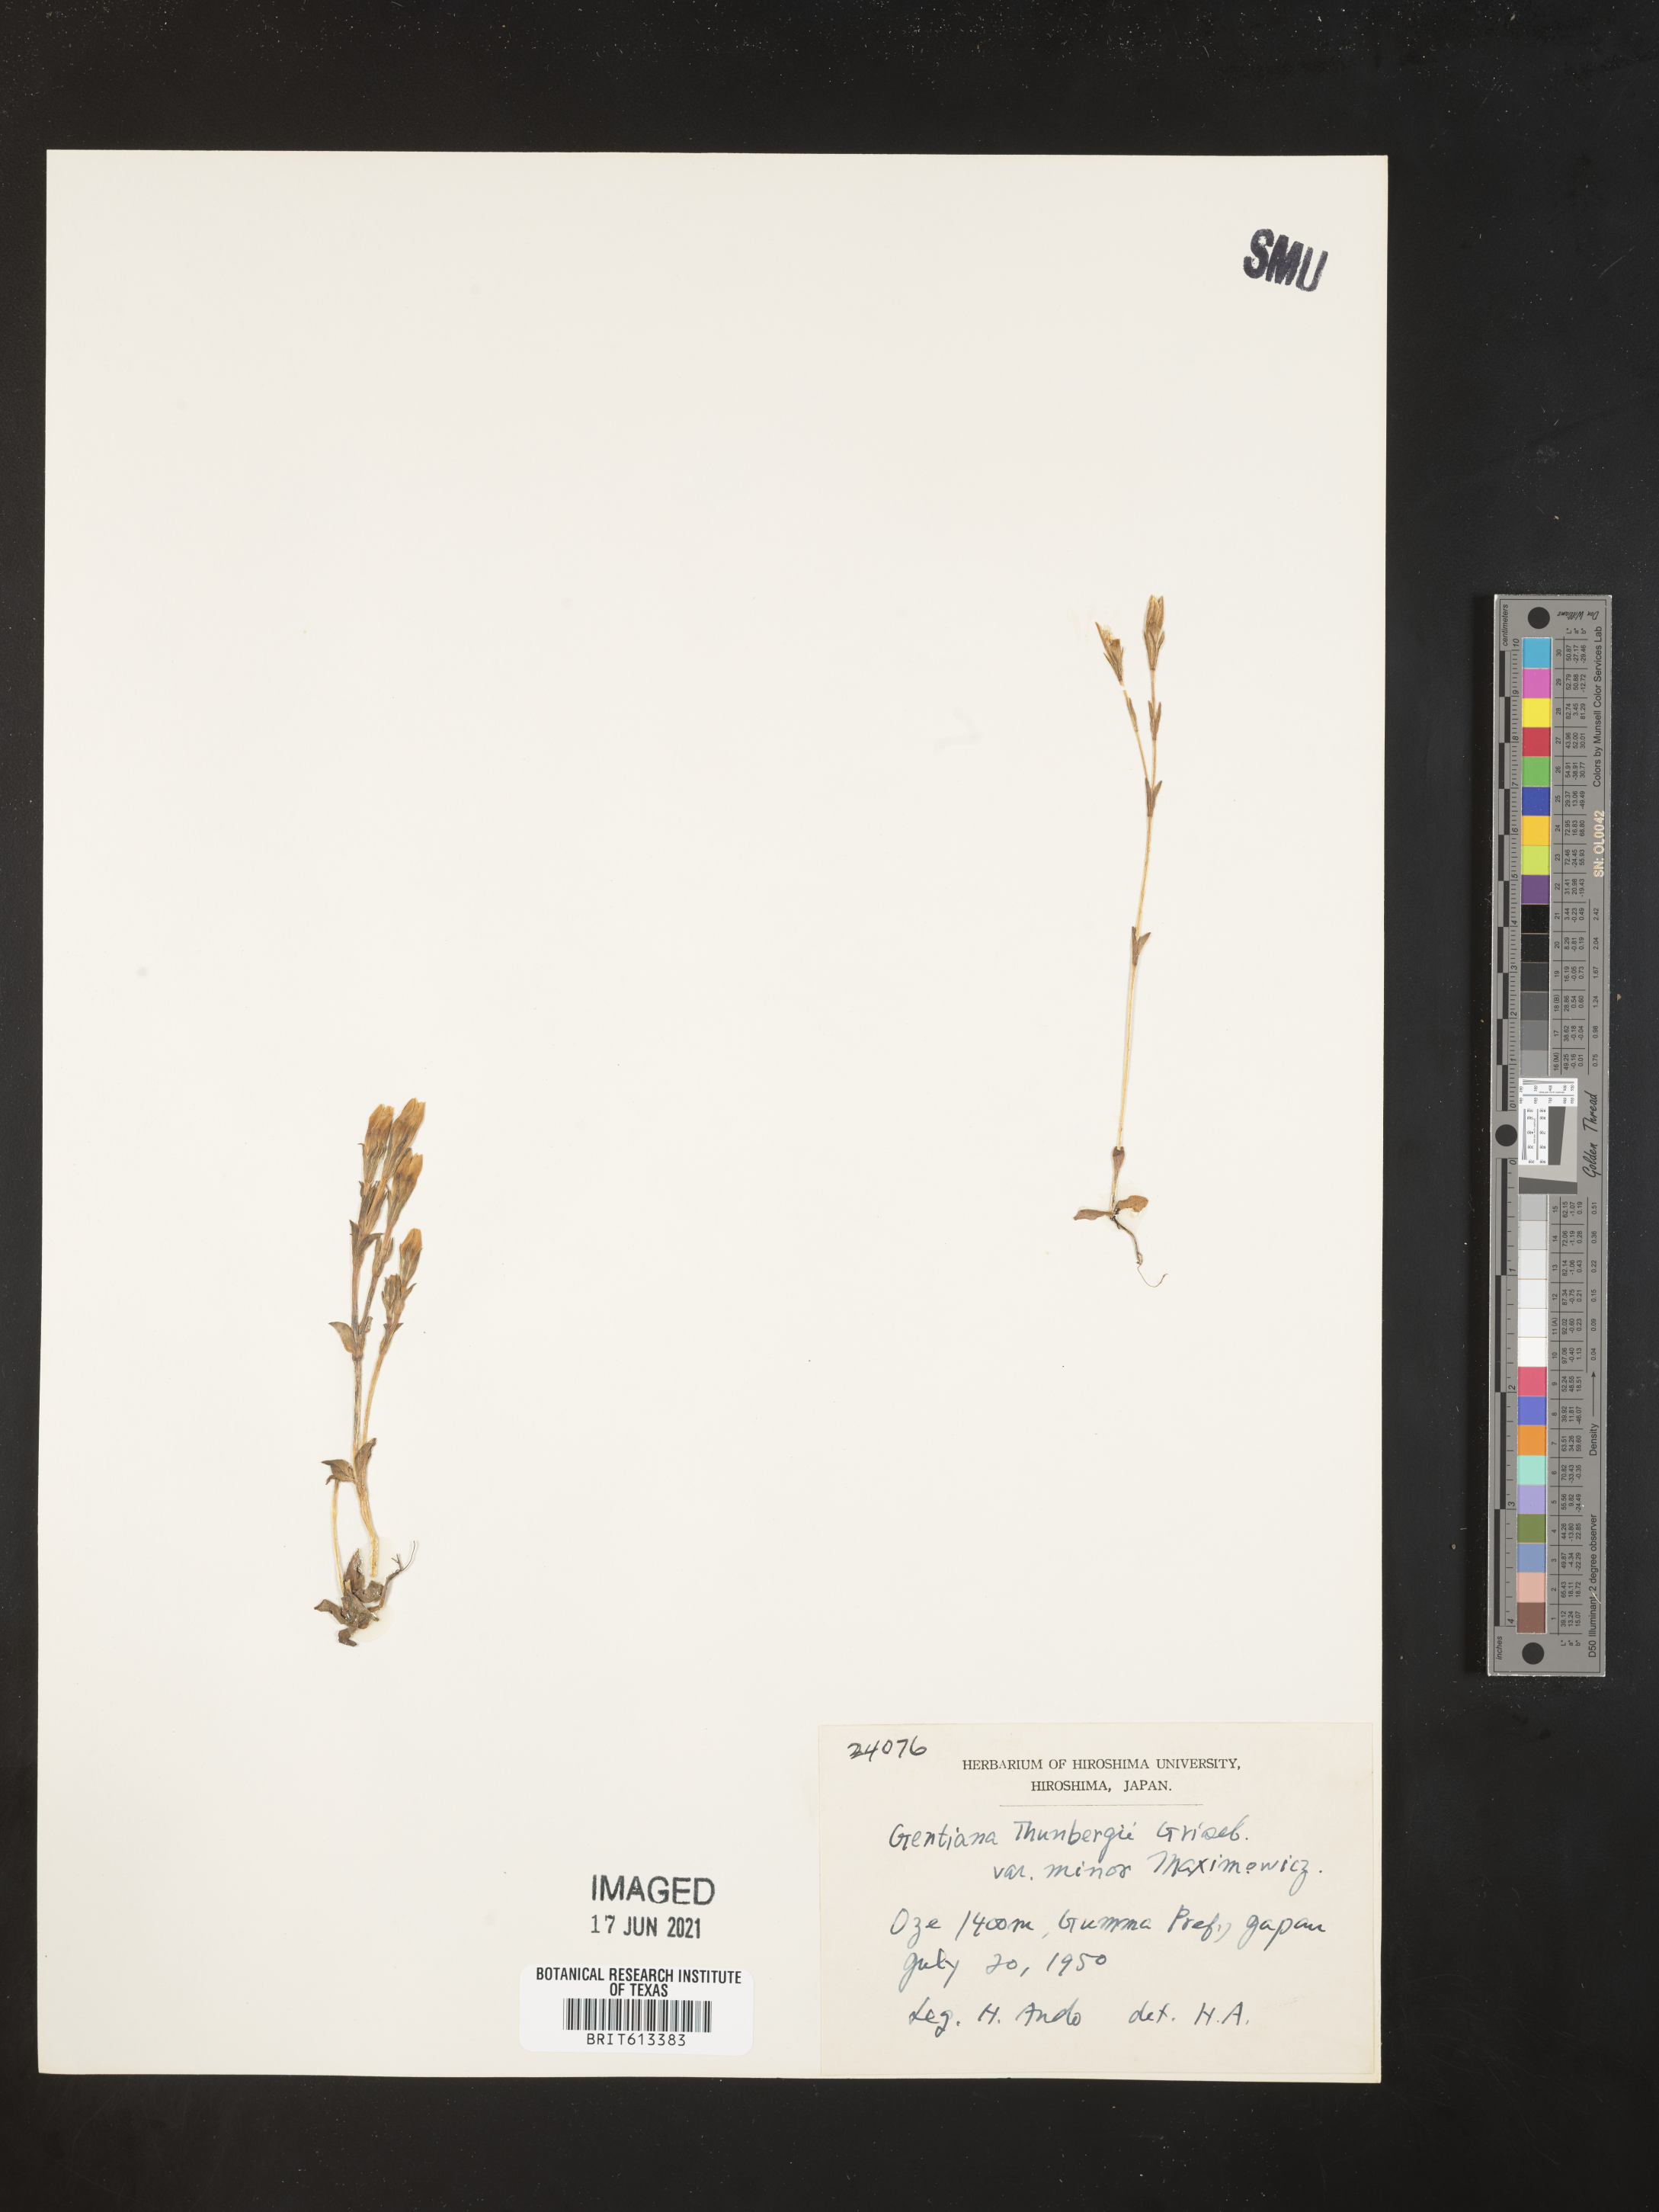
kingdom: Plantae
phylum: Tracheophyta
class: Magnoliopsida
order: Gentianales
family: Gentianaceae
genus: Gentiana
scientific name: Gentiana thunbergii
